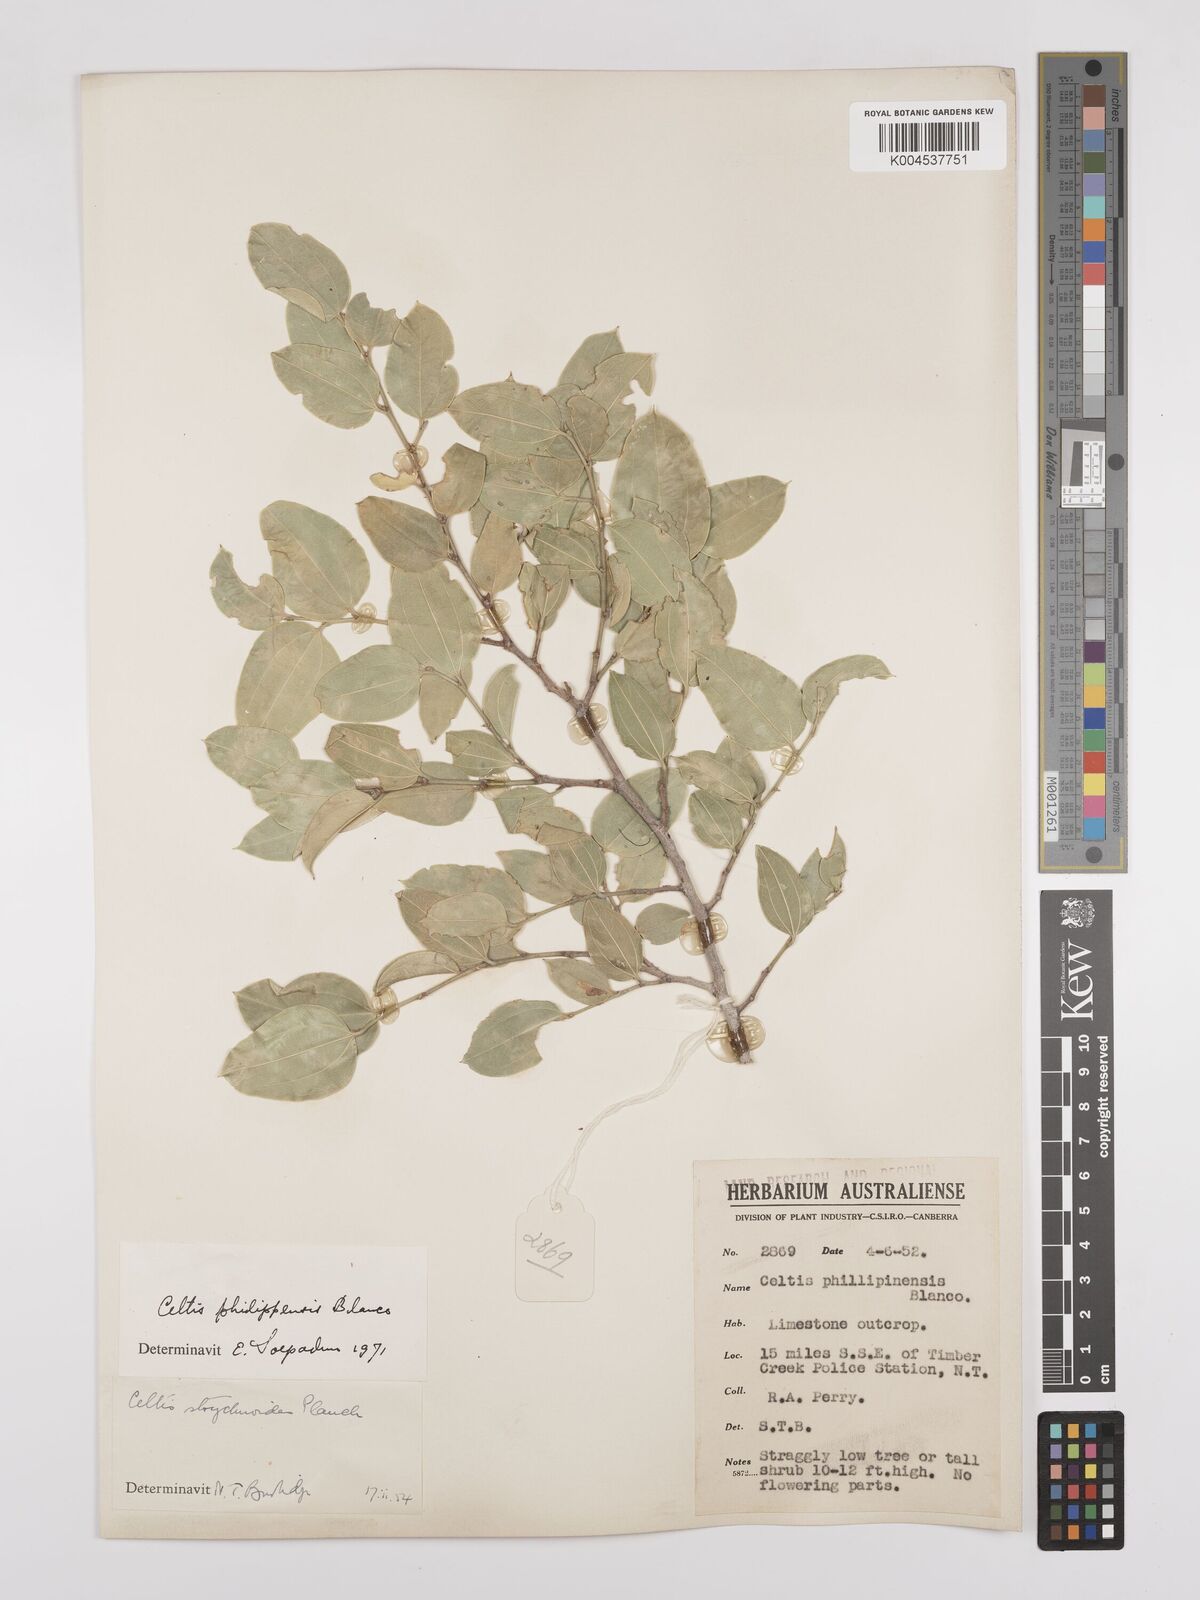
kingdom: Plantae
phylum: Tracheophyta
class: Magnoliopsida
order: Rosales
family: Cannabaceae
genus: Celtis
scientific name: Celtis philippensis
